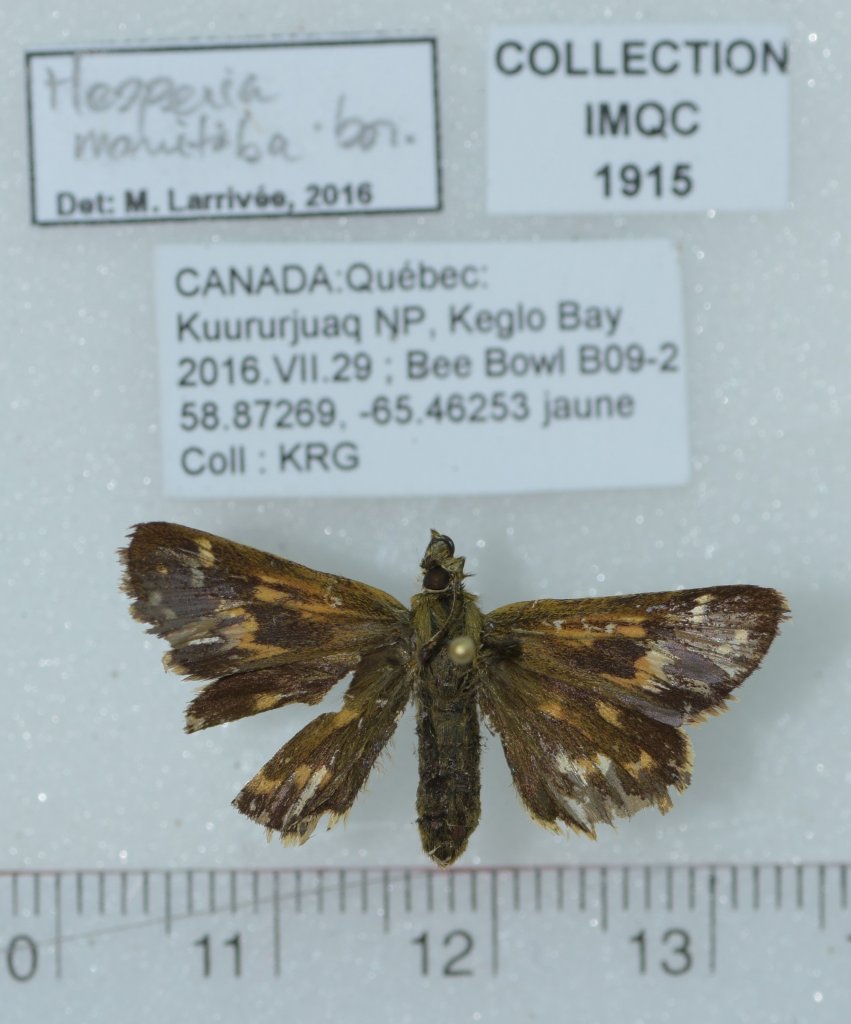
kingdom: Animalia
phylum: Arthropoda
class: Insecta
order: Lepidoptera
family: Hesperiidae
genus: Hesperia
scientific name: Hesperia comma
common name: Common Branded Skipper
